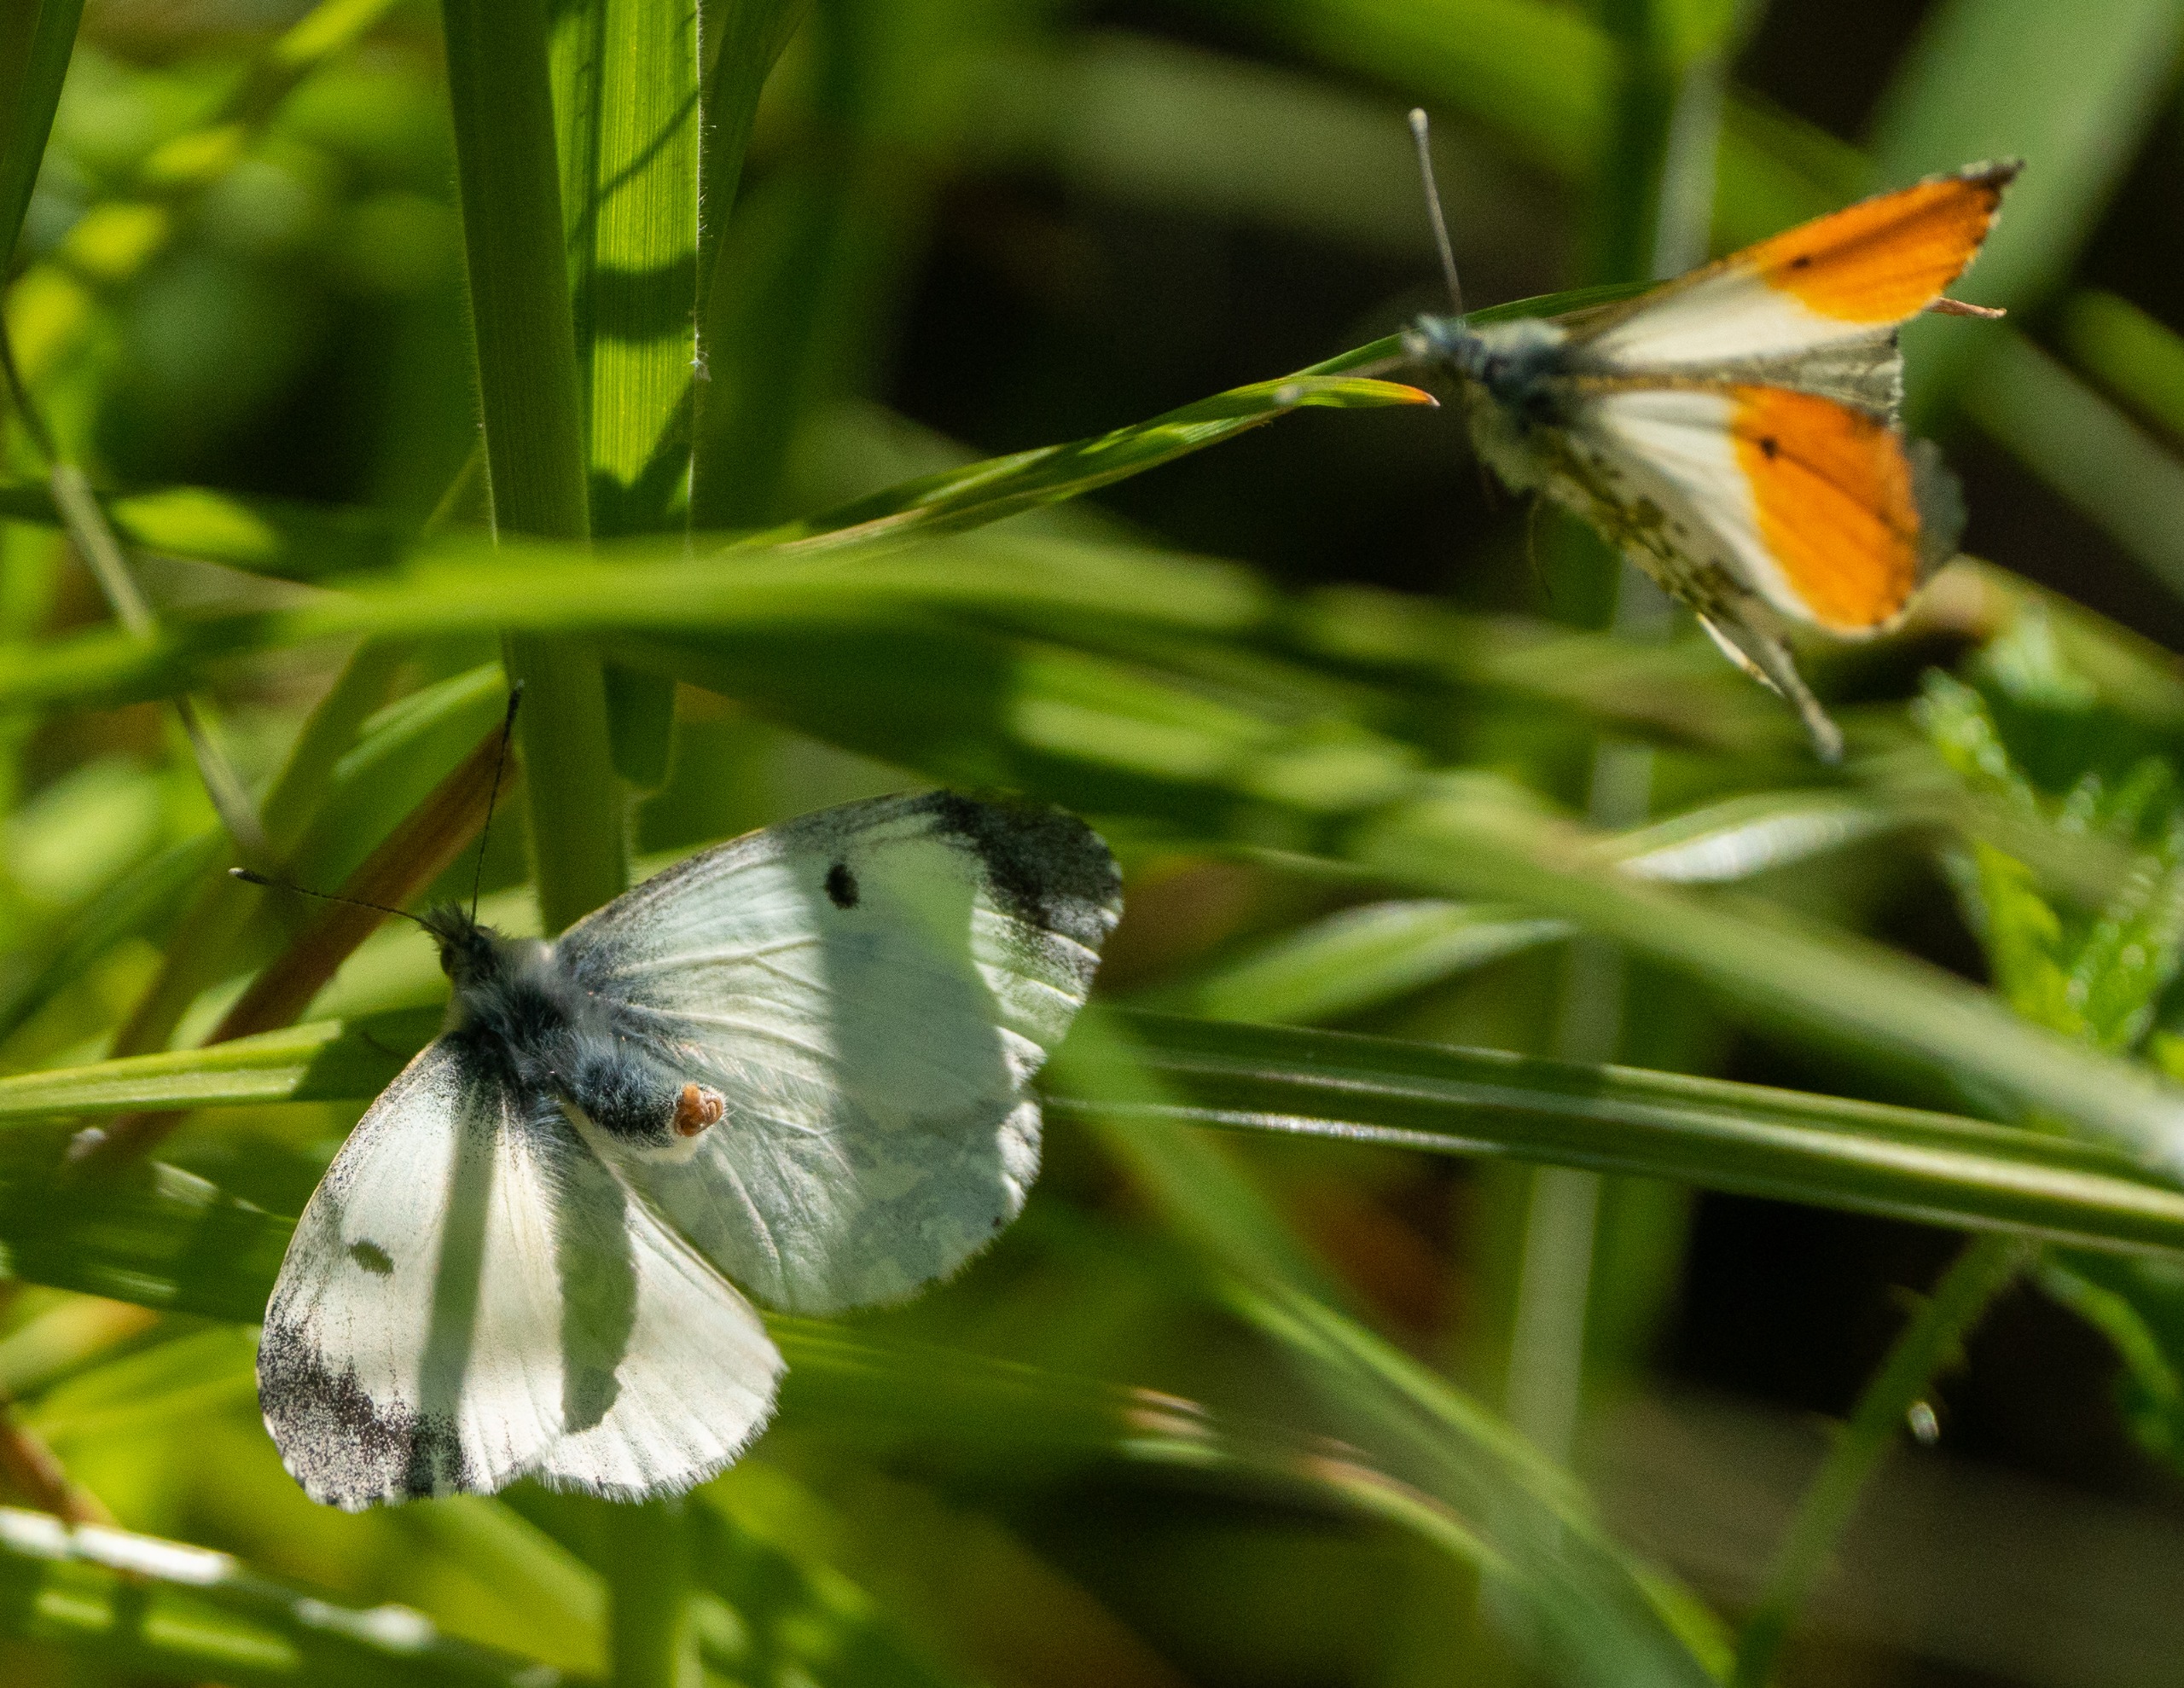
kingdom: Animalia
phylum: Arthropoda
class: Insecta
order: Lepidoptera
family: Pieridae
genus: Anthocharis
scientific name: Anthocharis cardamines
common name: Aurora
